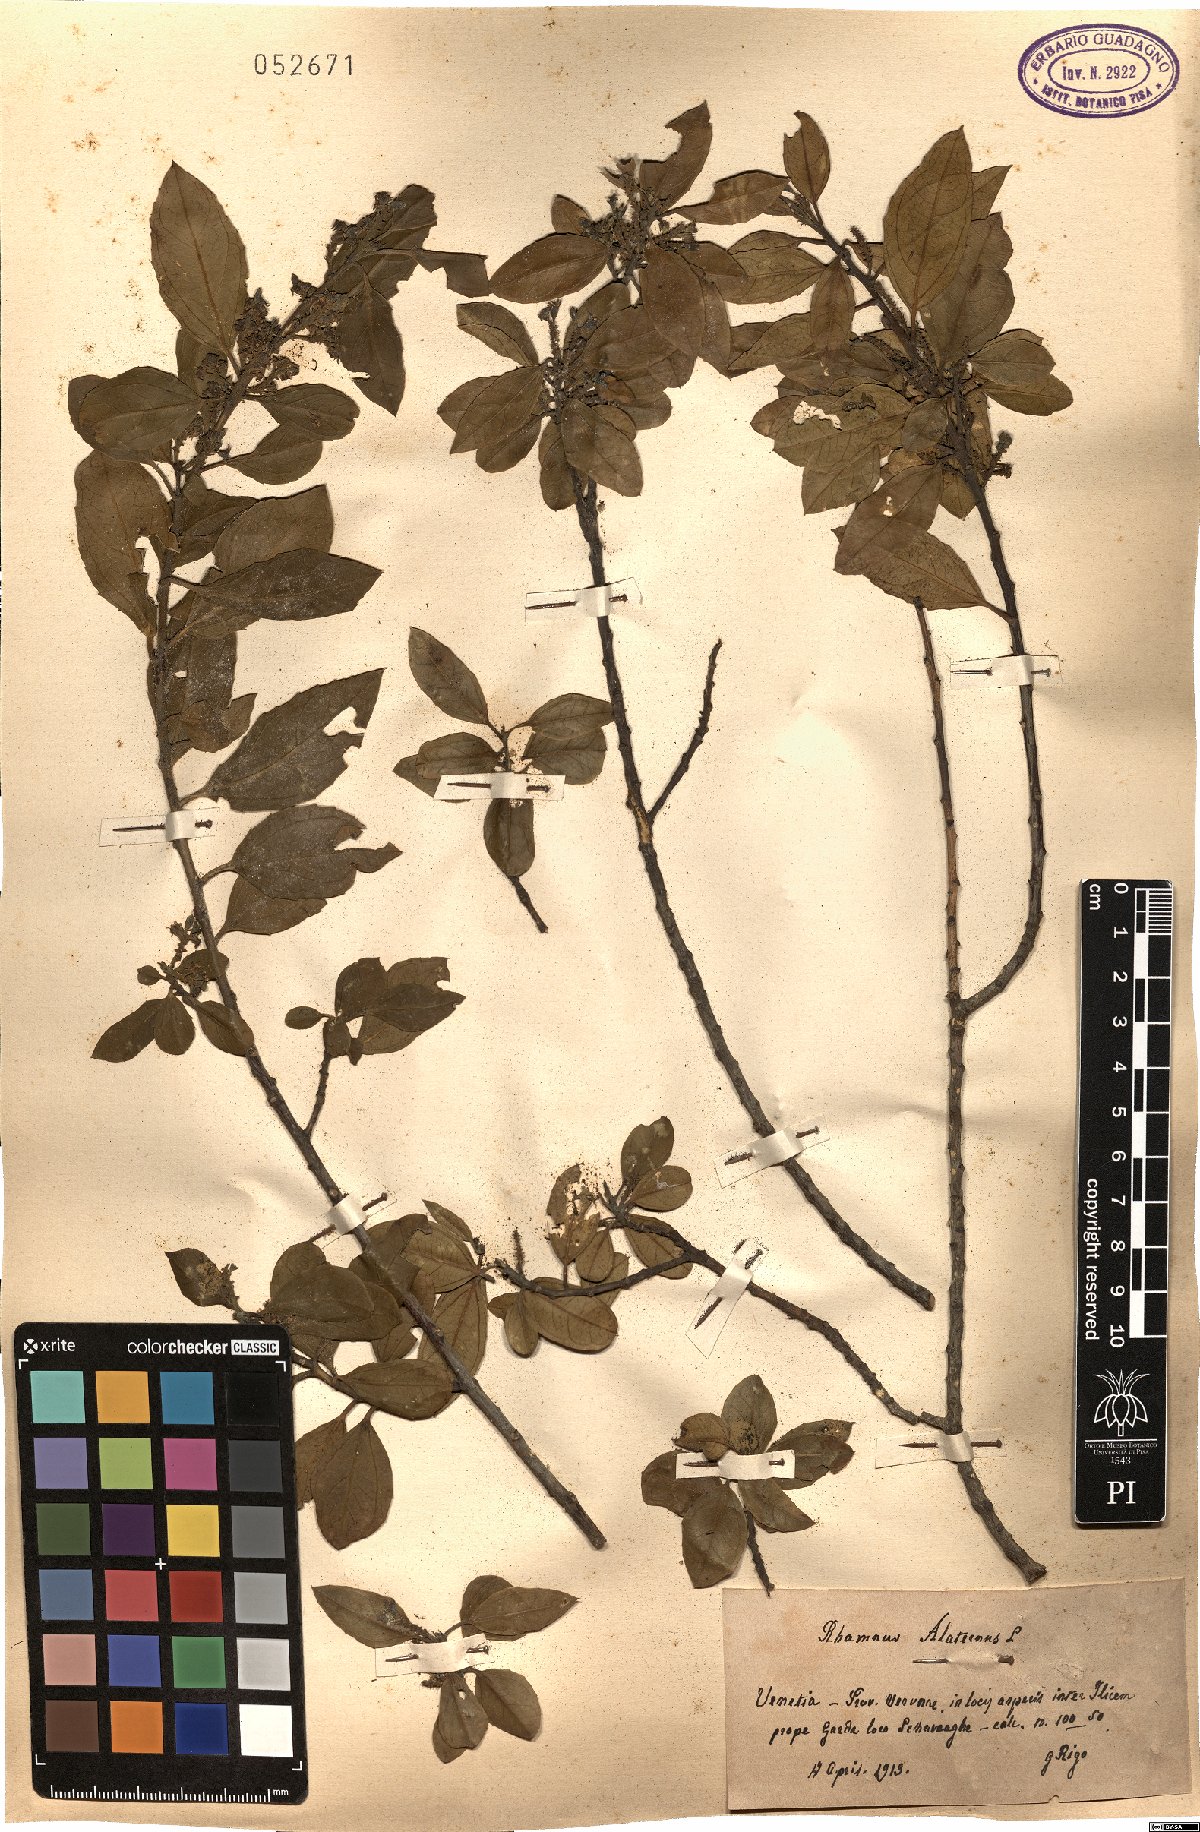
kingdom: Plantae
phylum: Tracheophyta
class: Magnoliopsida
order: Rosales
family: Rhamnaceae
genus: Rhamnus
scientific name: Rhamnus alaternus
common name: Mediterranean buckthorn
